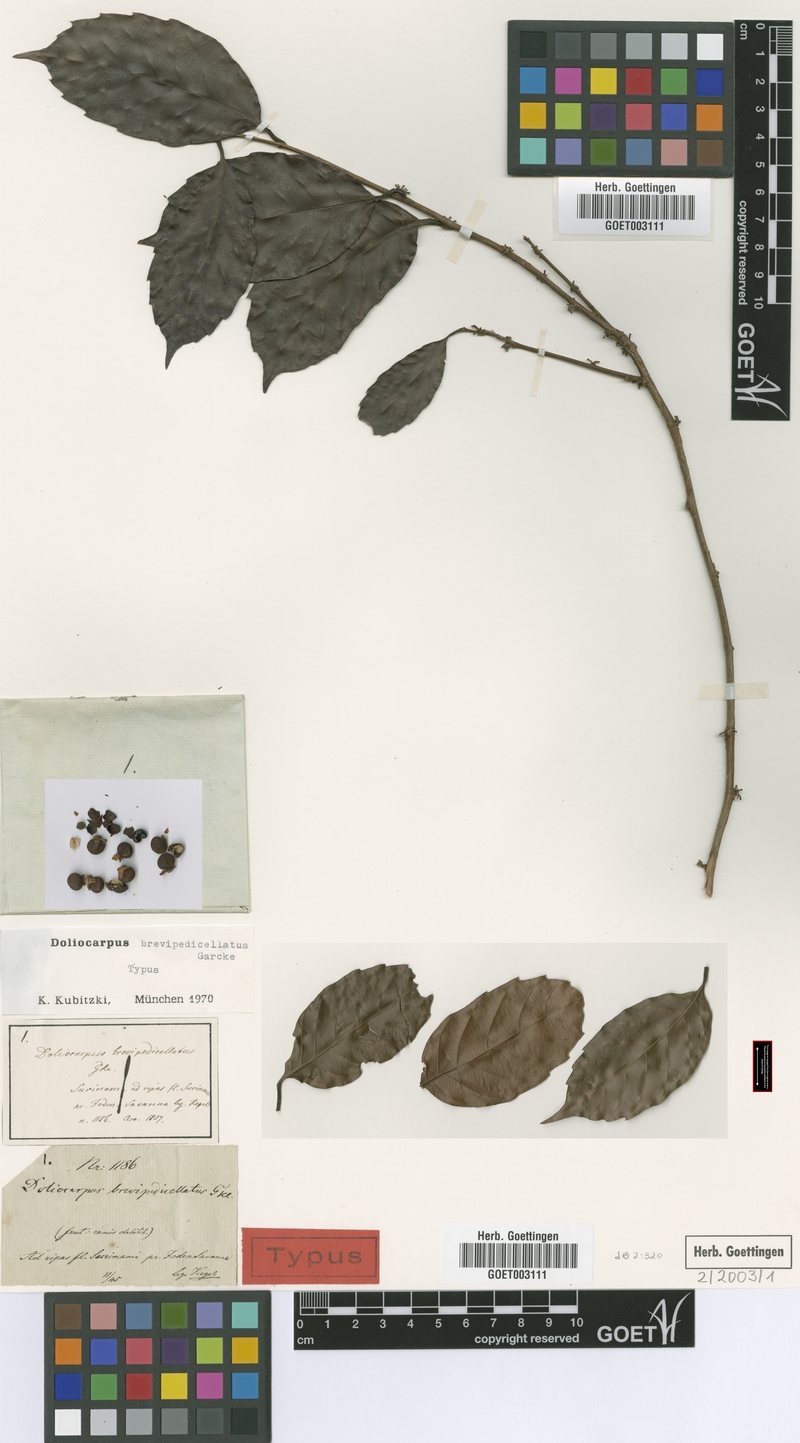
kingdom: Plantae
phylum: Tracheophyta
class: Magnoliopsida
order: Dilleniales
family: Dilleniaceae
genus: Doliocarpus
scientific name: Doliocarpus brevipedicellatus
